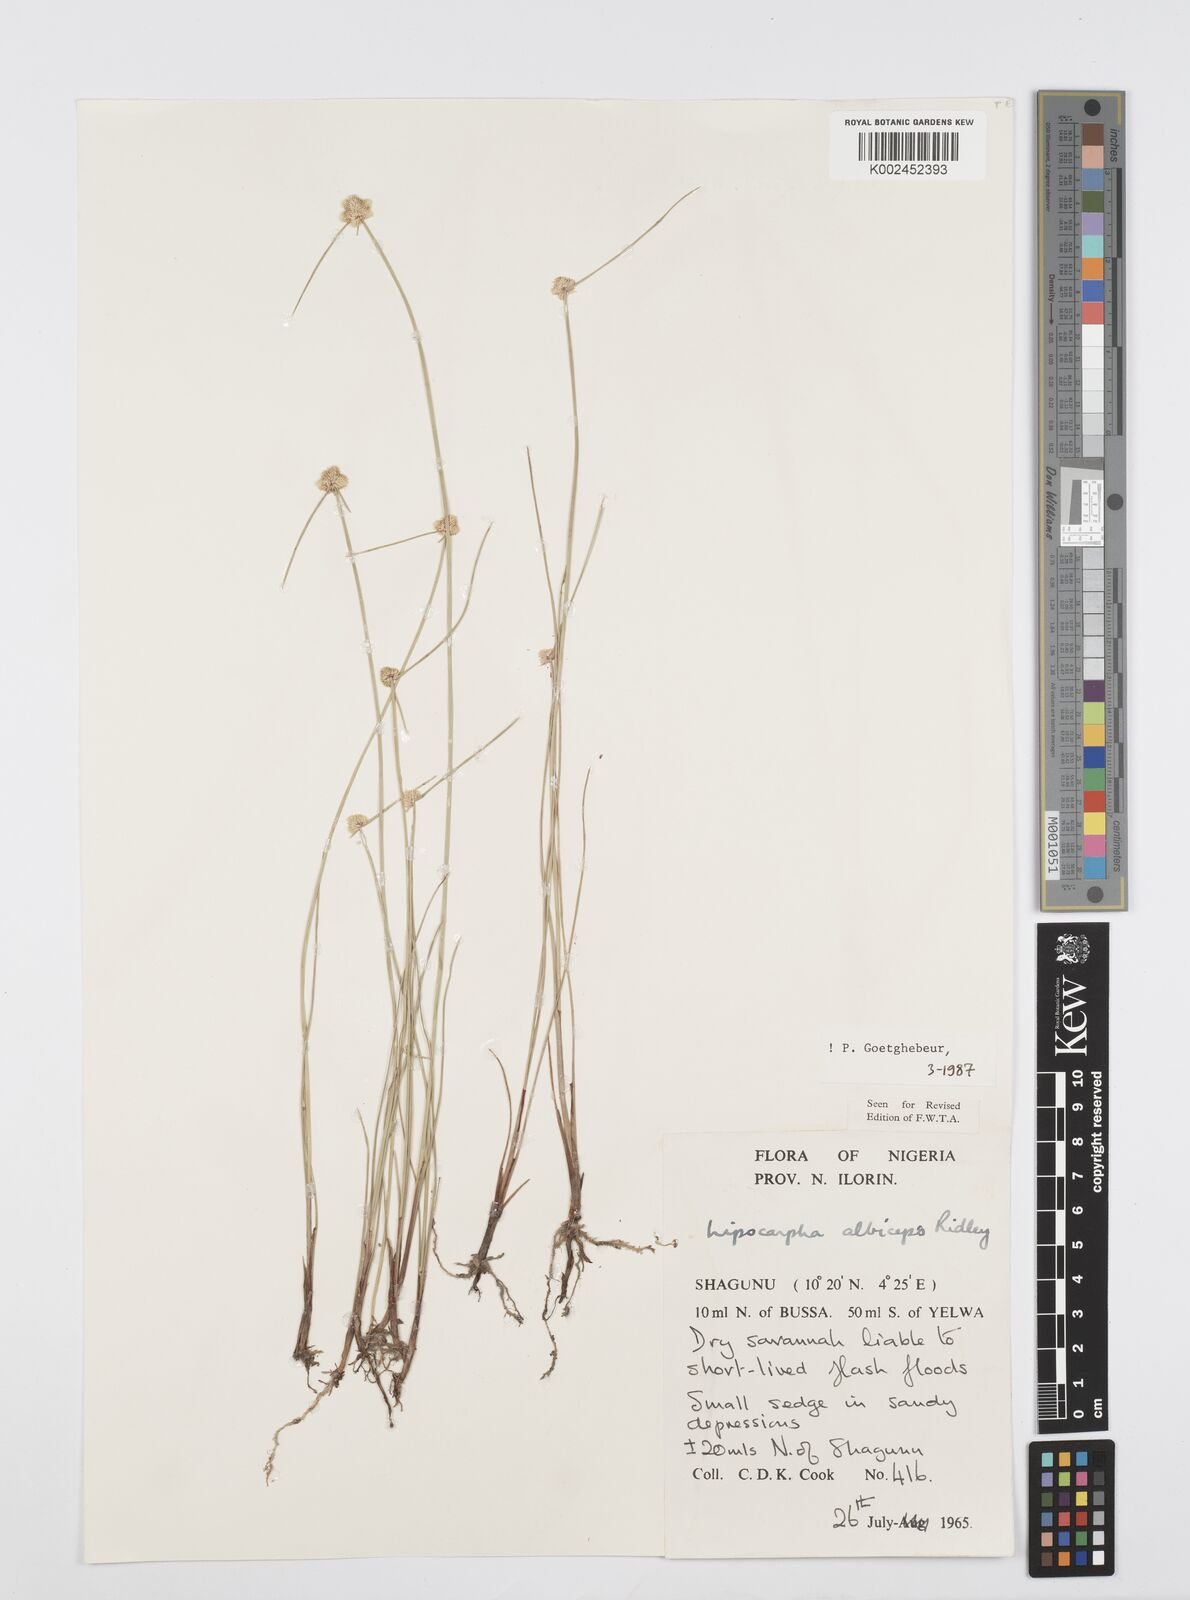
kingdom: Plantae
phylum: Tracheophyta
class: Liliopsida
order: Poales
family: Cyperaceae
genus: Cyperus
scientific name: Cyperus albiceps
